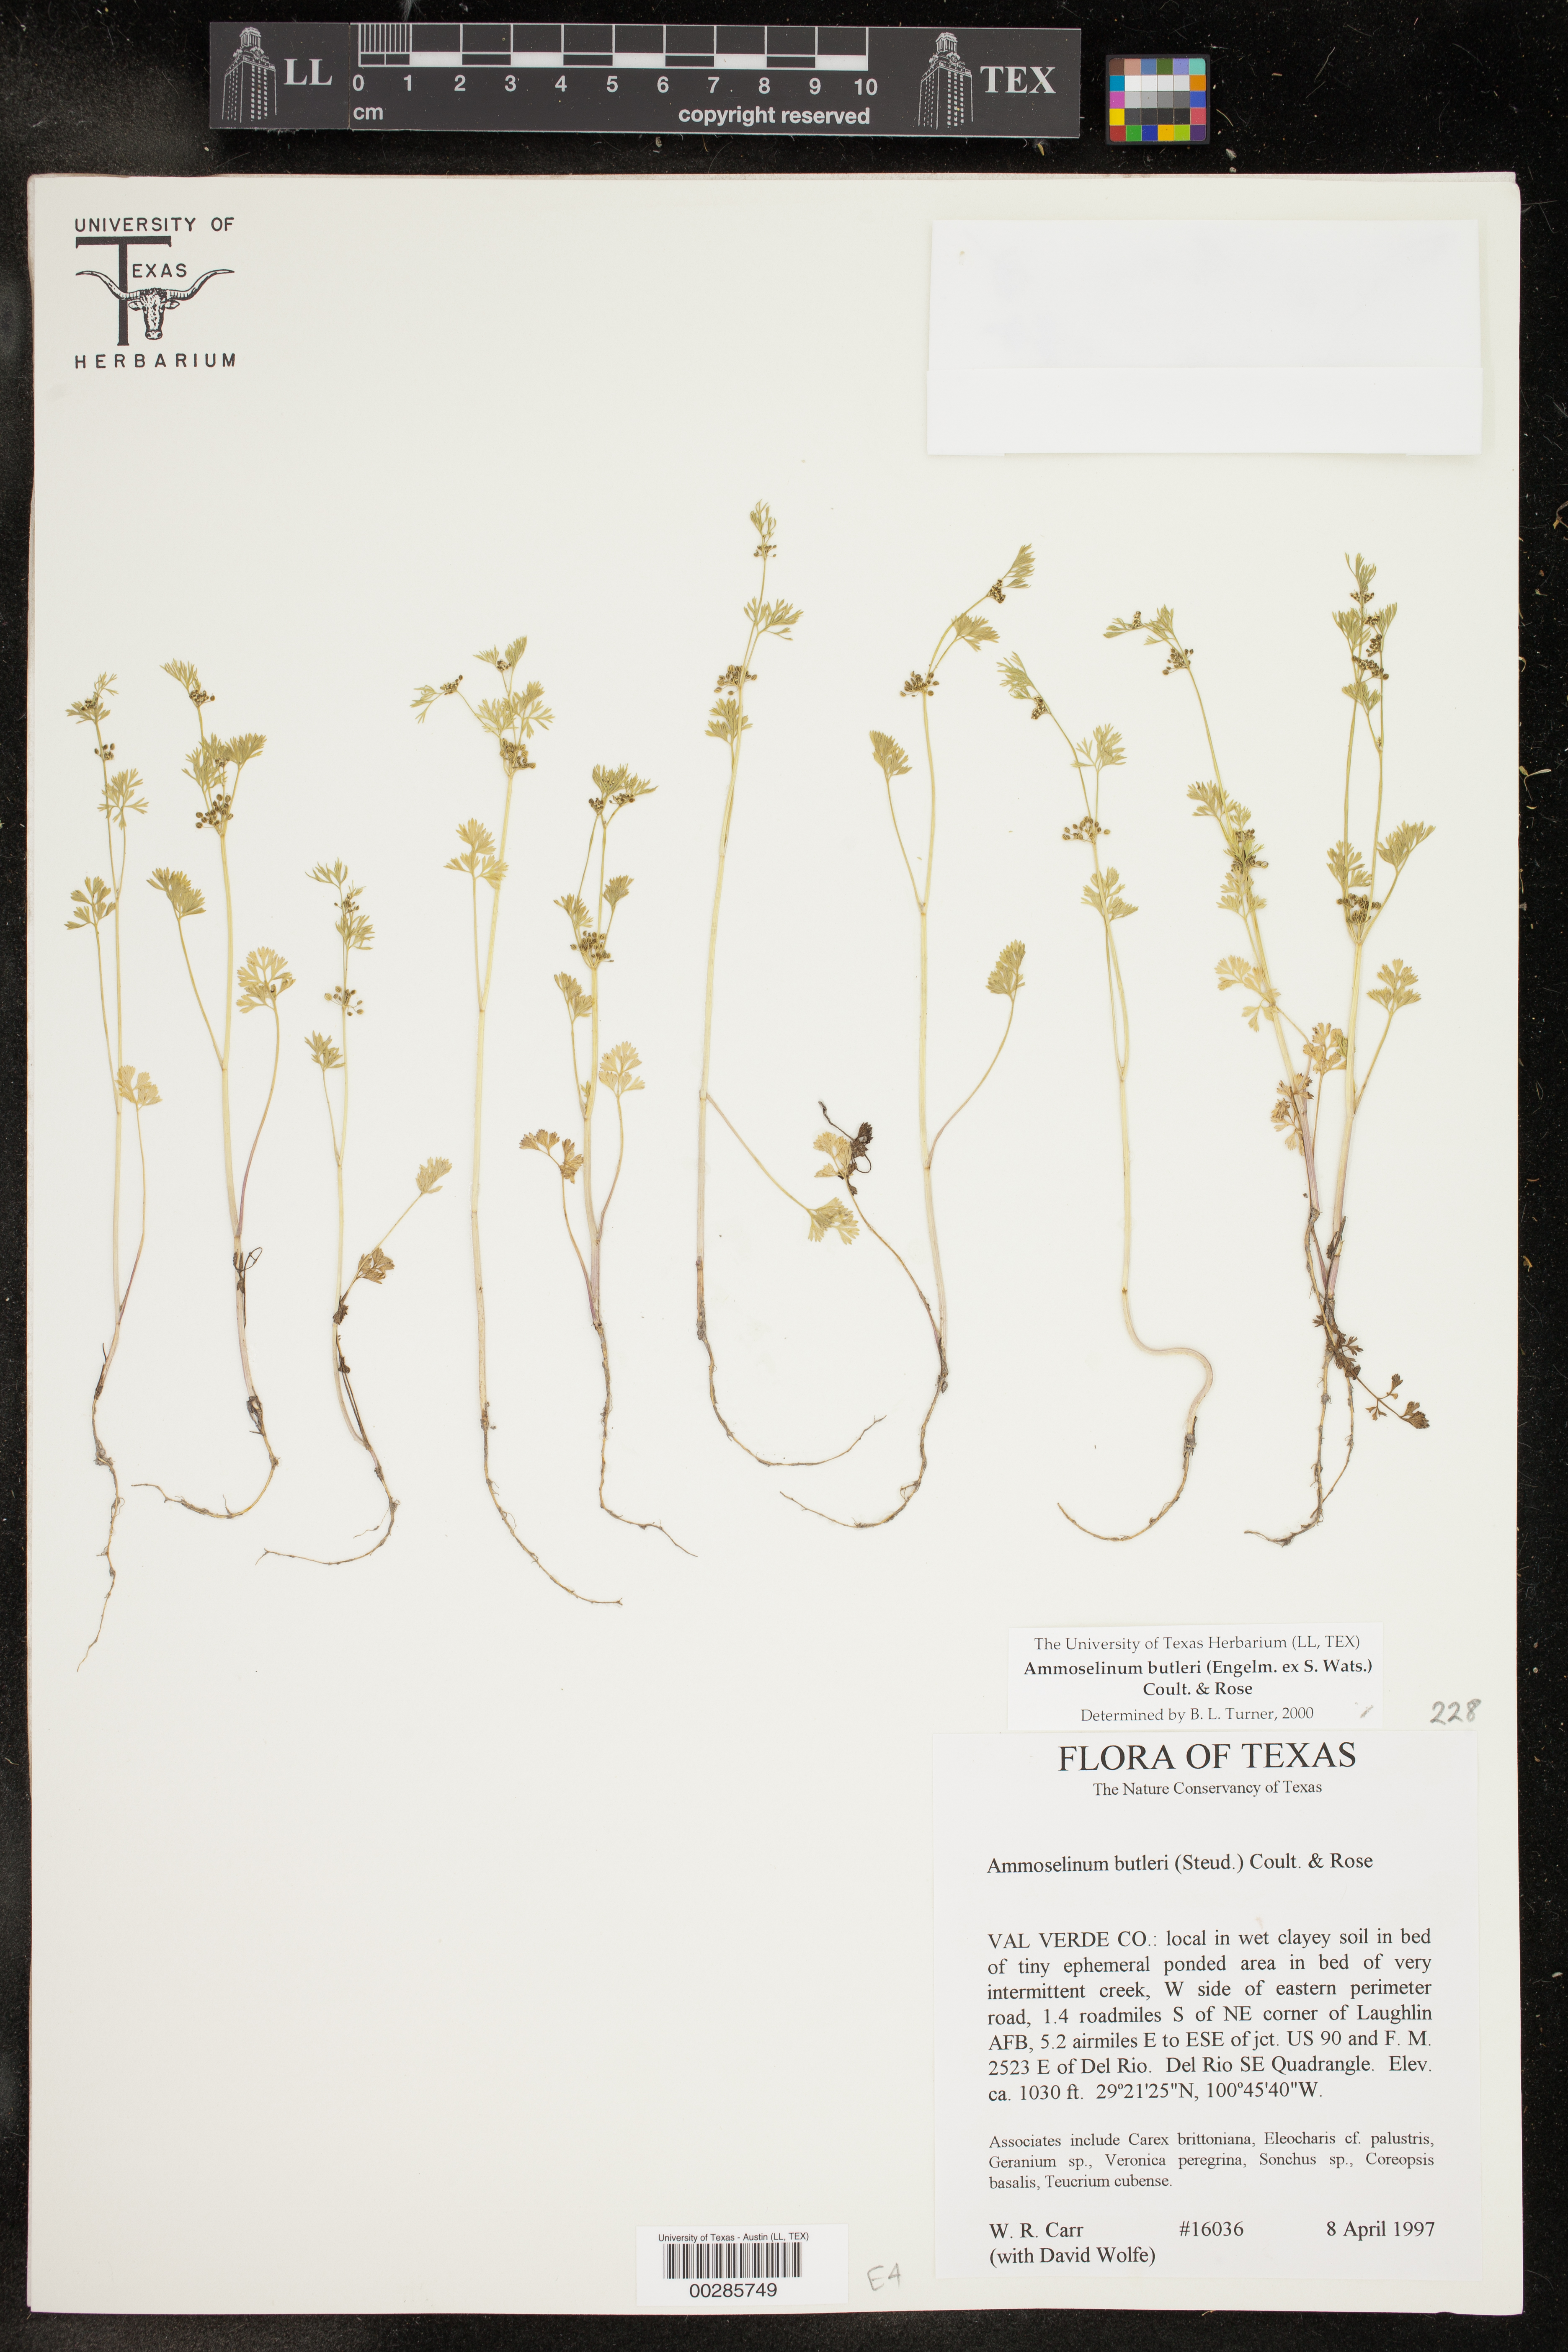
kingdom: Plantae
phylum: Tracheophyta
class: Magnoliopsida
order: Apiales
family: Apiaceae
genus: Ammoselinum
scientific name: Ammoselinum butleri
